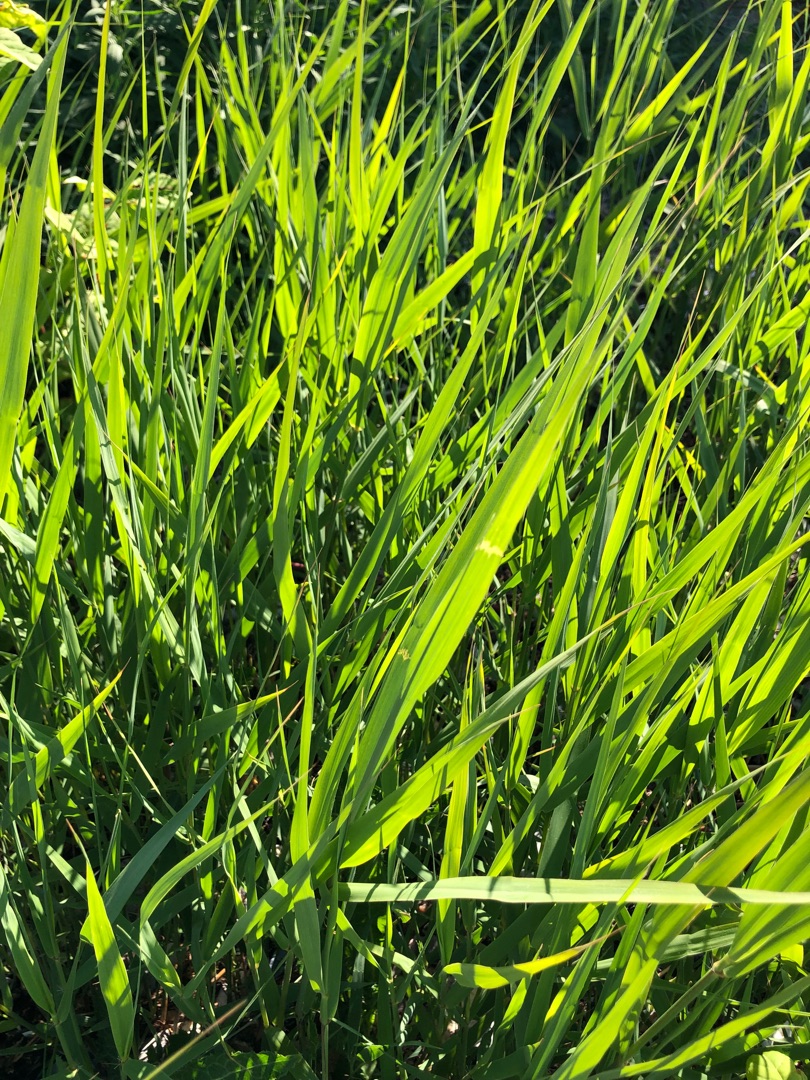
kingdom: Plantae
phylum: Tracheophyta
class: Liliopsida
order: Poales
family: Poaceae
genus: Phragmites
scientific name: Phragmites australis
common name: Tagrør
